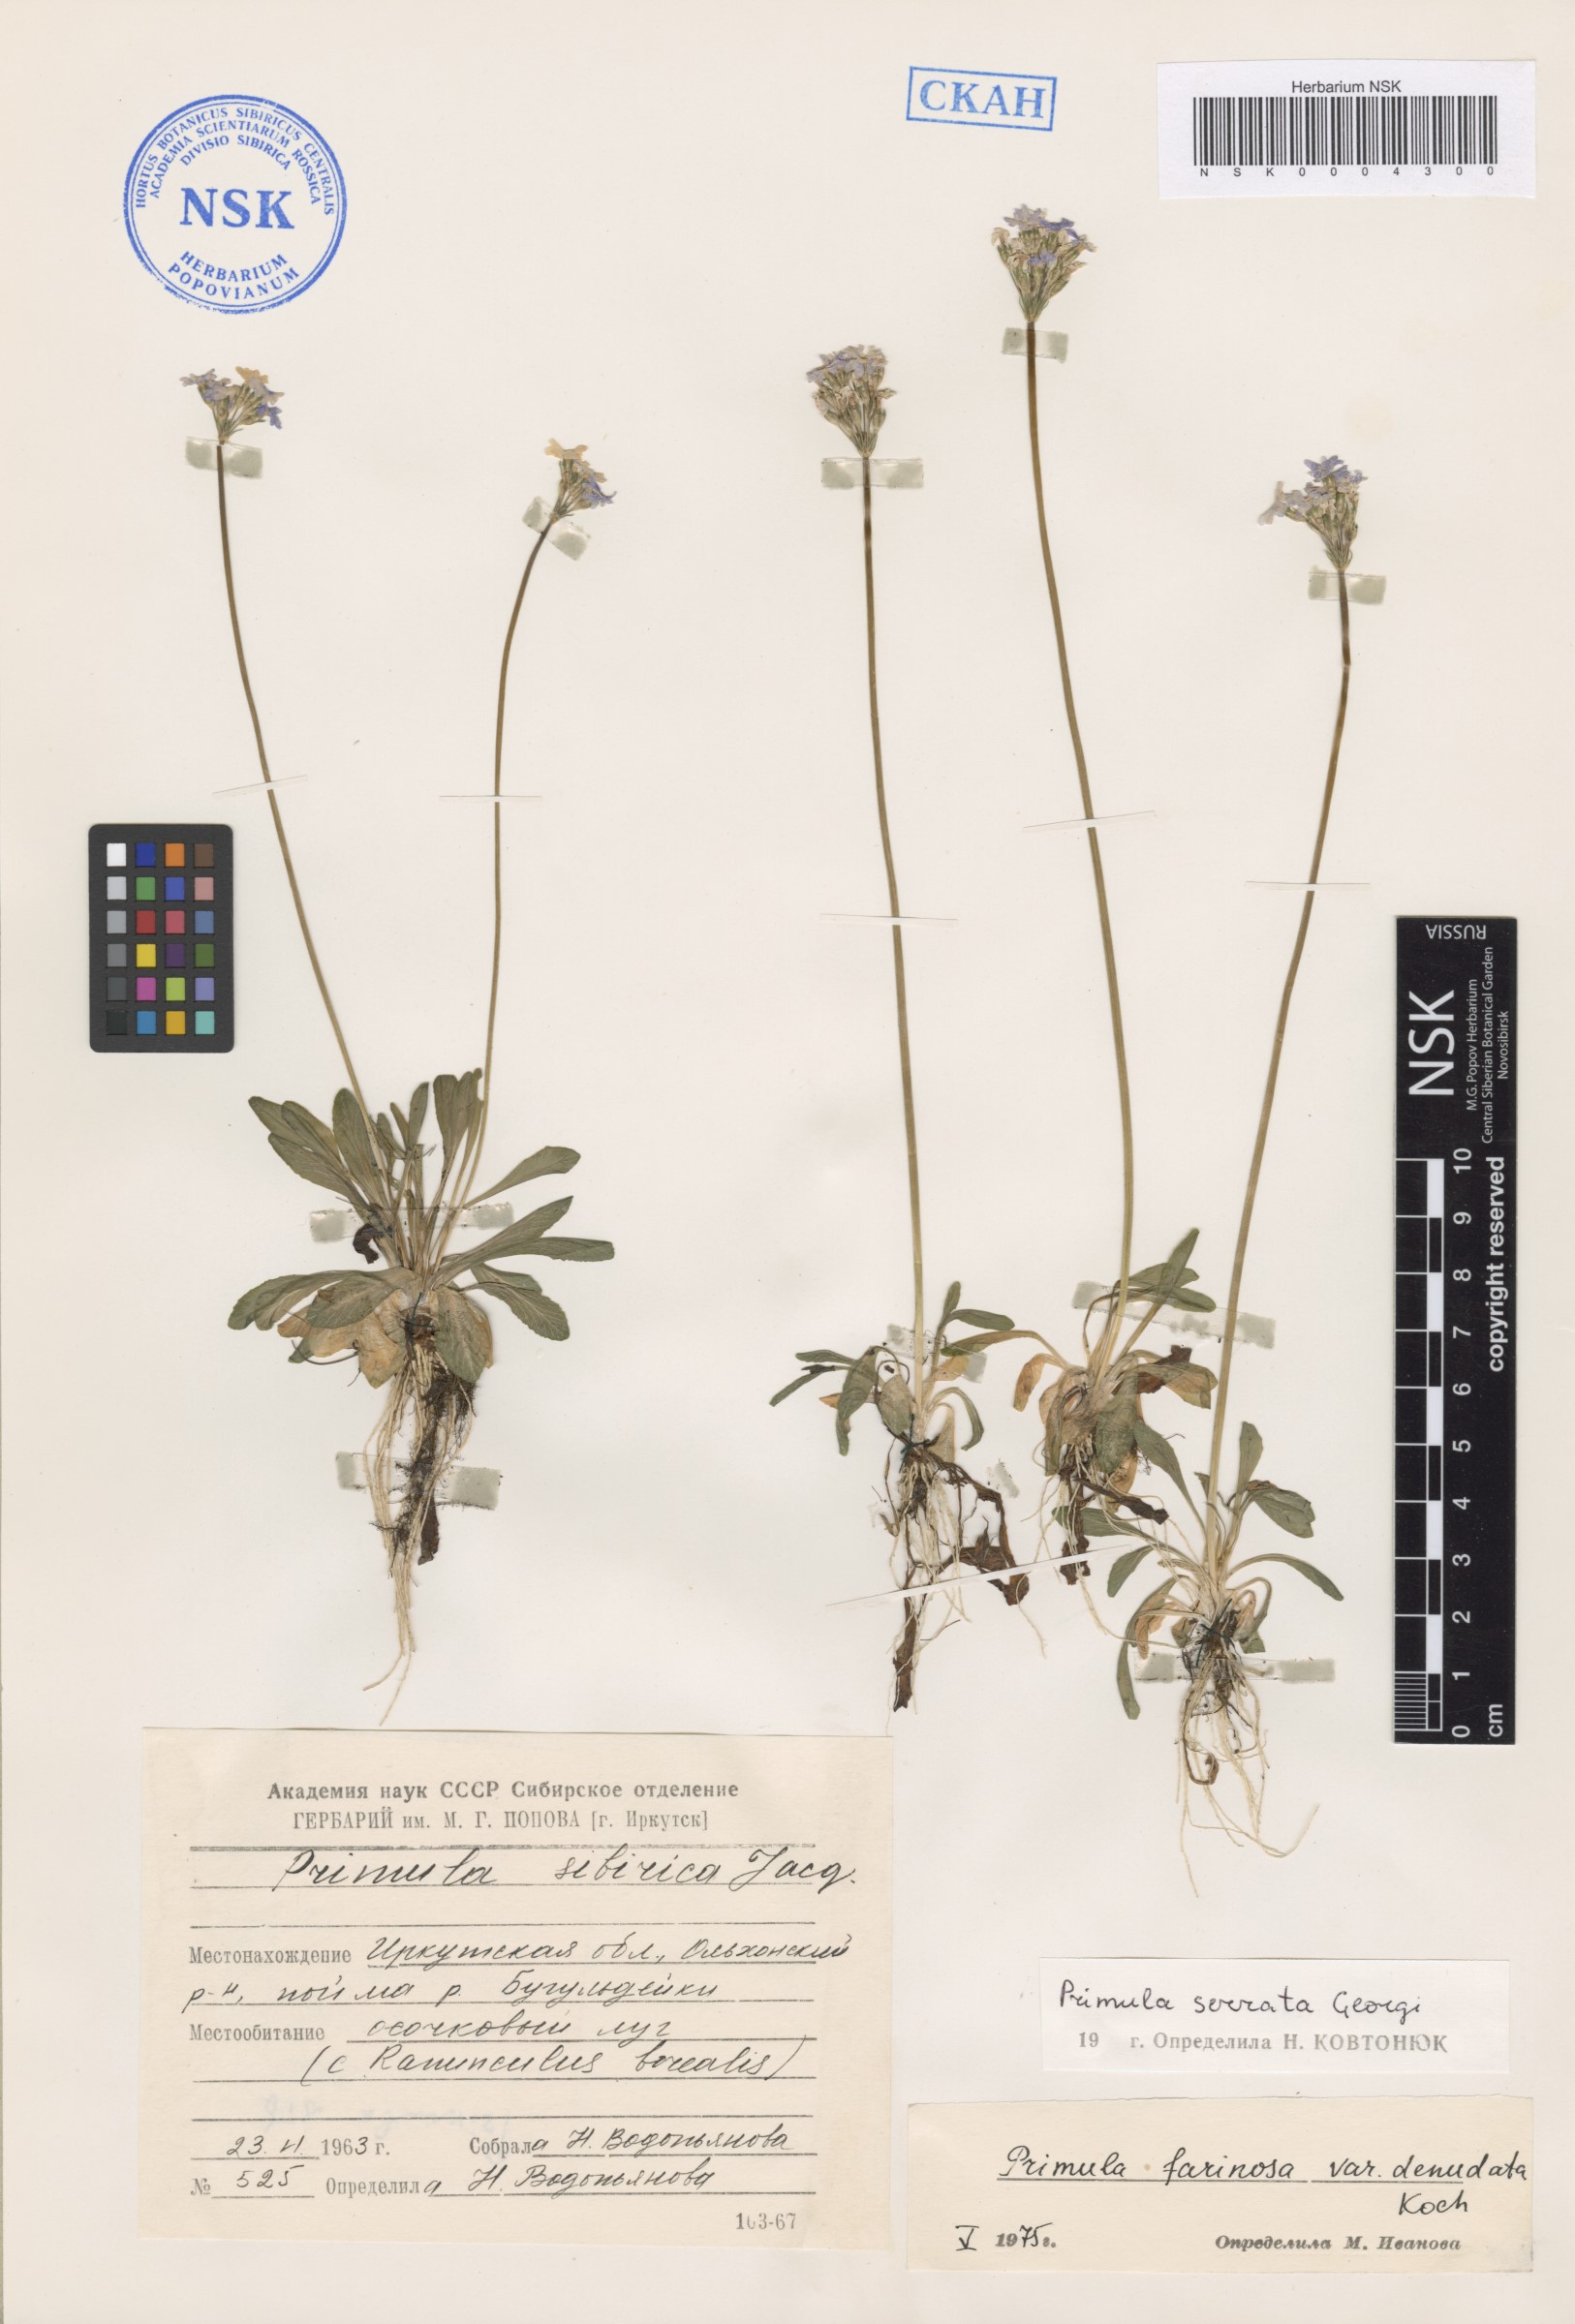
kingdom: Plantae
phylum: Tracheophyta
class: Magnoliopsida
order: Ericales
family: Primulaceae
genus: Primula
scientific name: Primula serrata
